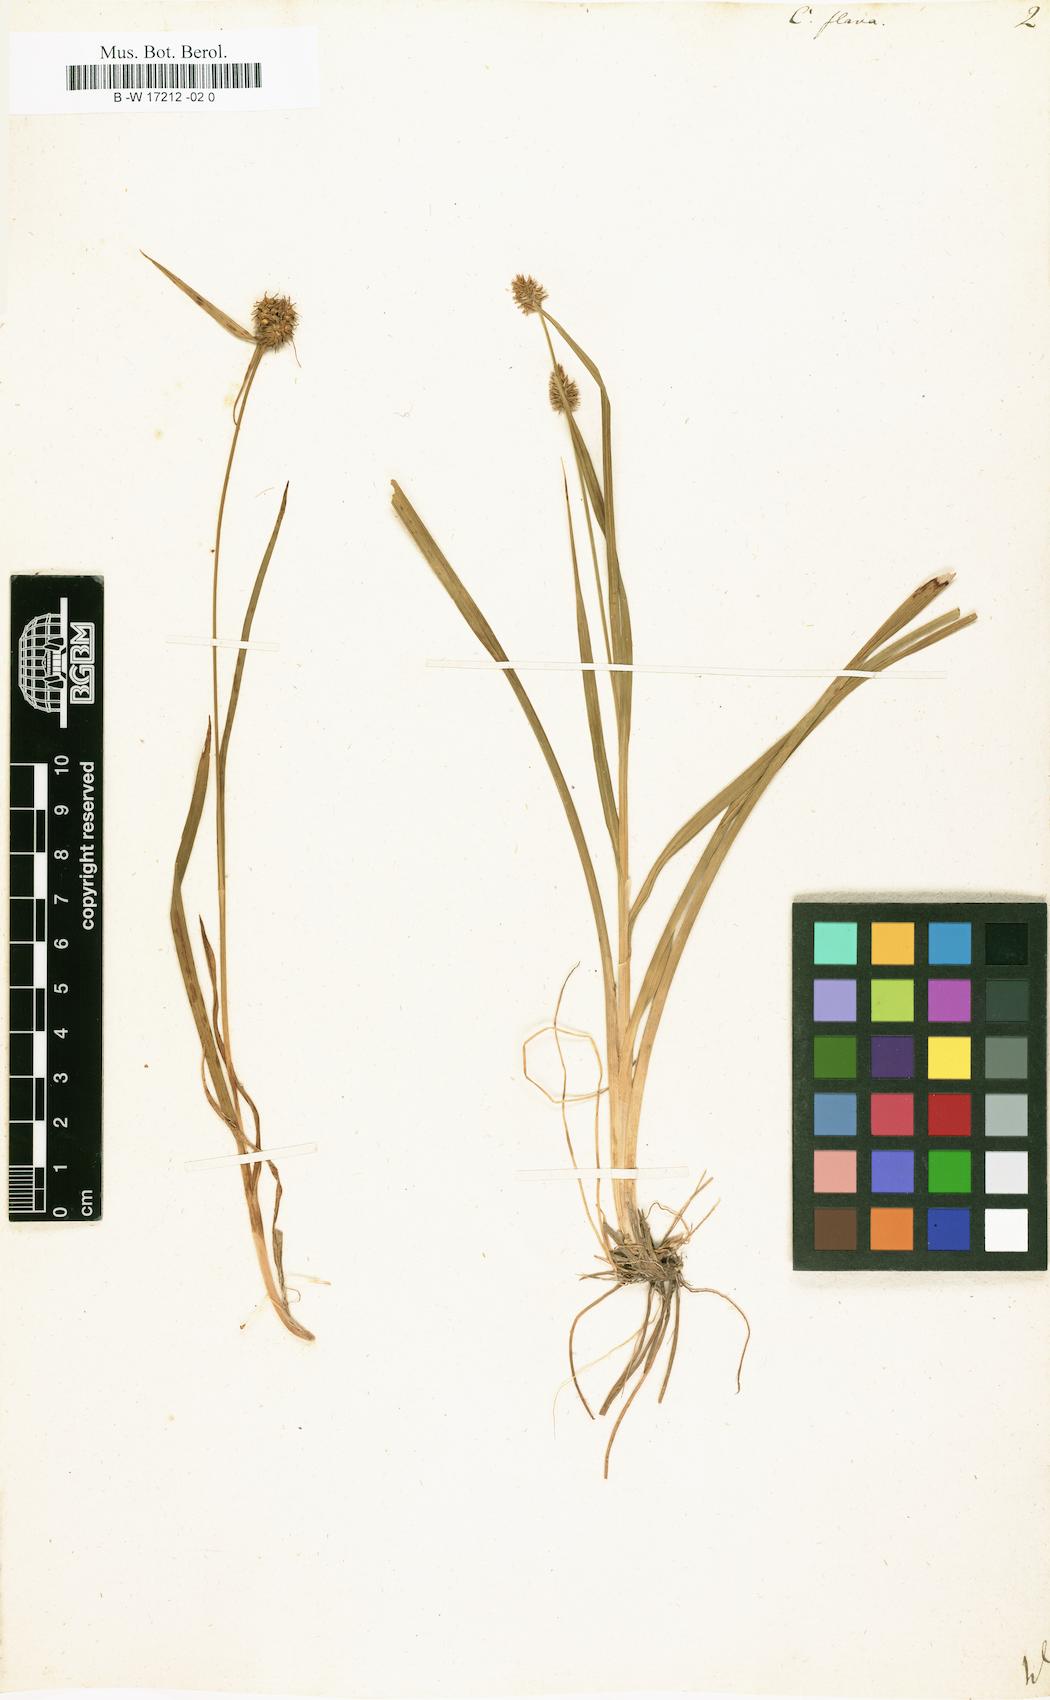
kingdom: Plantae
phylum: Tracheophyta
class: Liliopsida
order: Poales
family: Cyperaceae
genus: Carex
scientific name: Carex flava
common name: Large yellow-sedge
